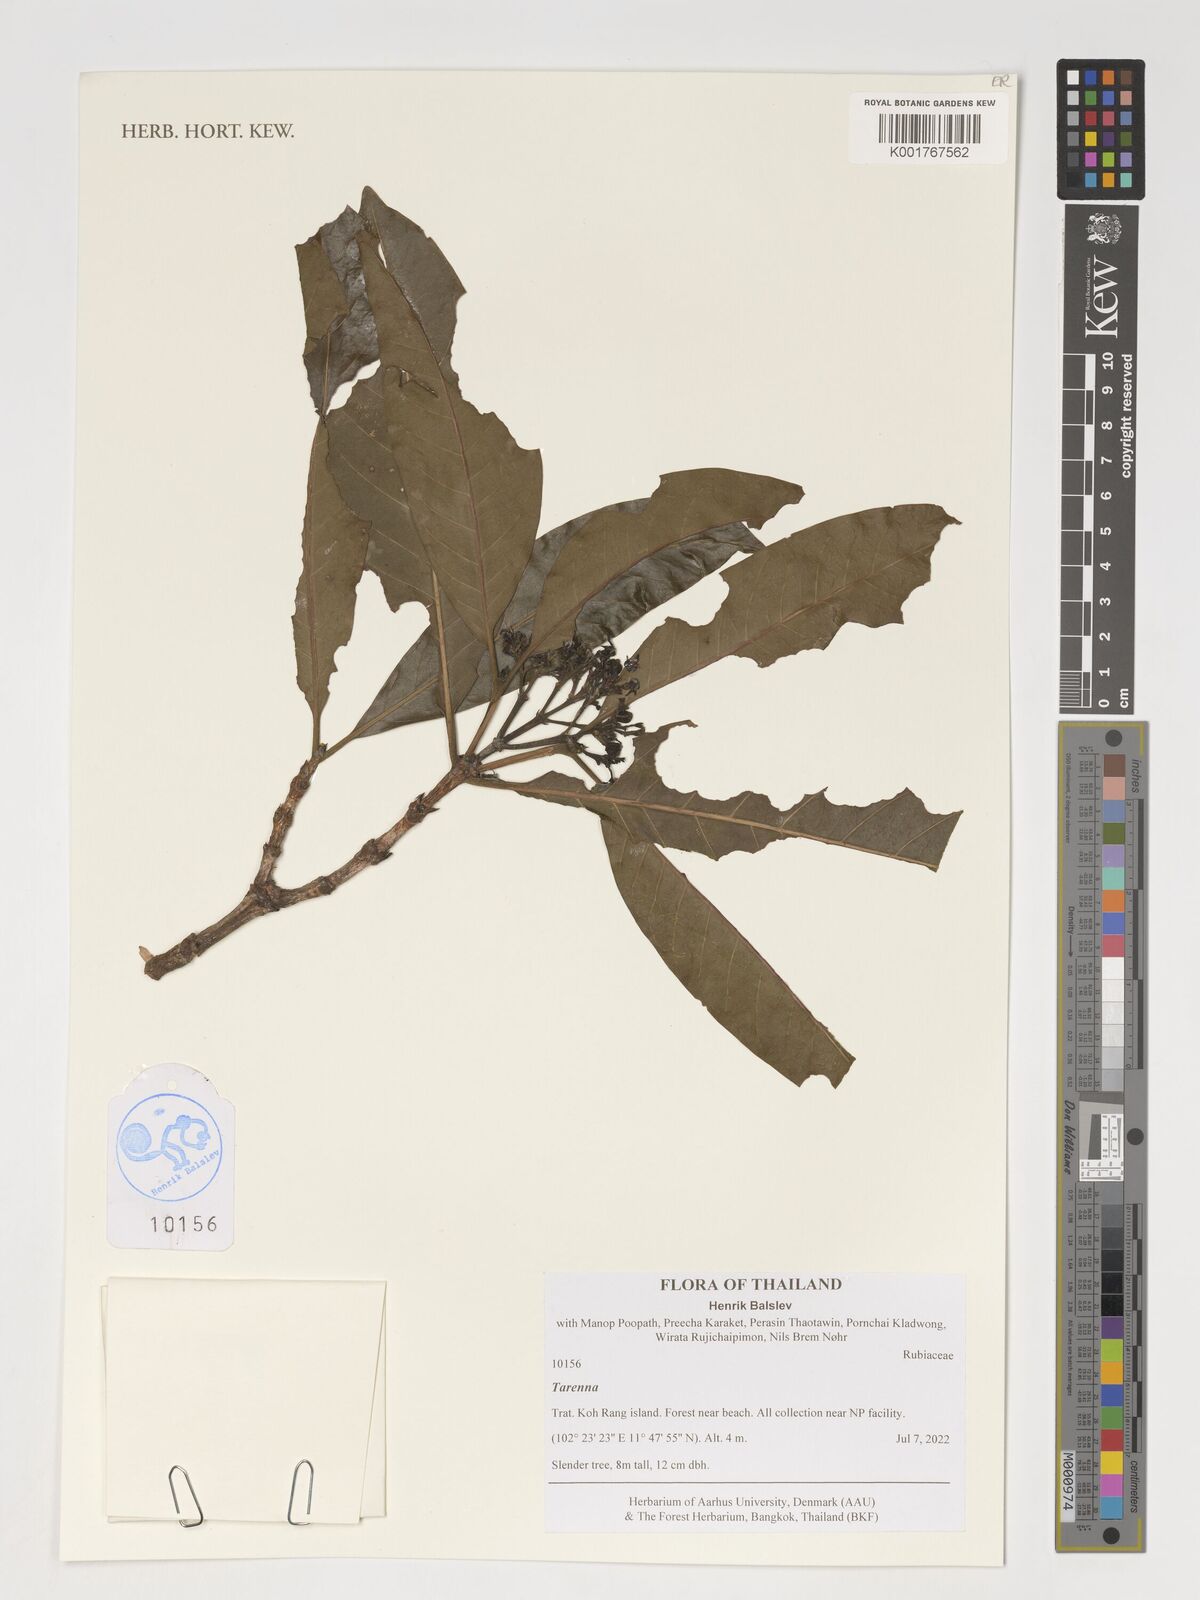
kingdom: Plantae
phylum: Tracheophyta
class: Magnoliopsida
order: Gentianales
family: Rubiaceae
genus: Tarenna
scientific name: Tarenna
